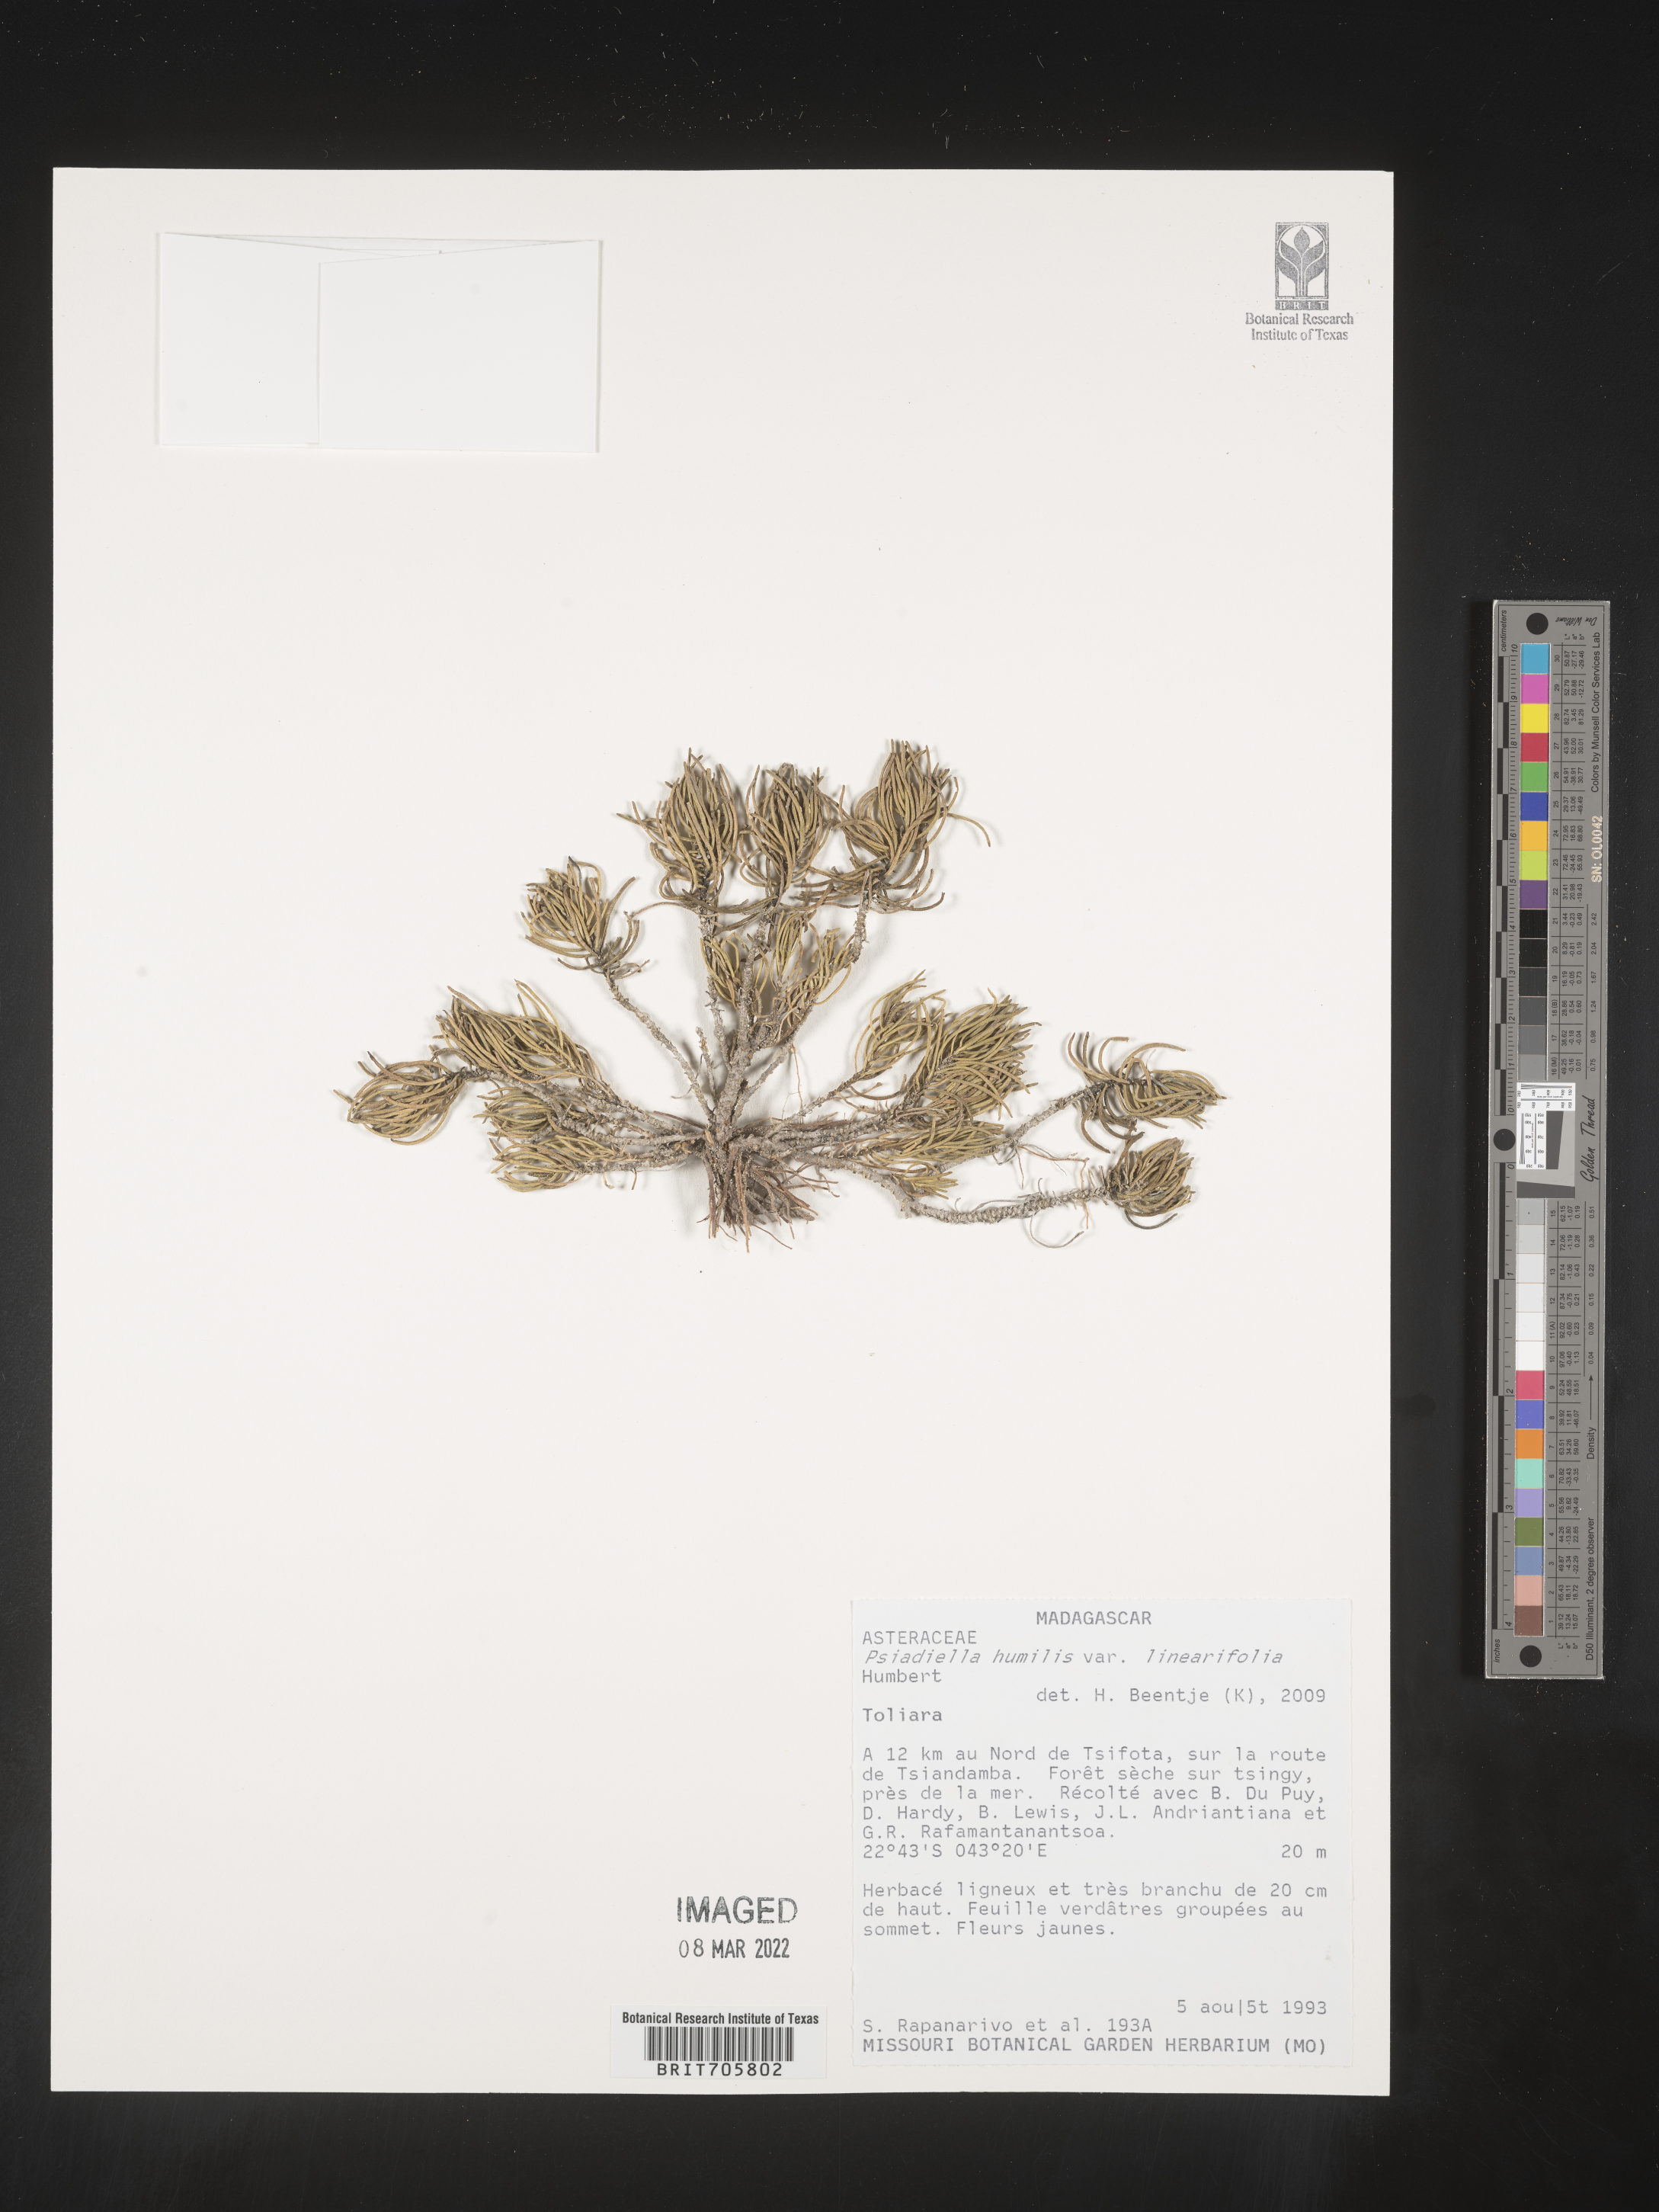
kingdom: Plantae
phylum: Tracheophyta
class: Magnoliopsida
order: Asterales
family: Asteraceae
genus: Psiadia
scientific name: Psiadia
